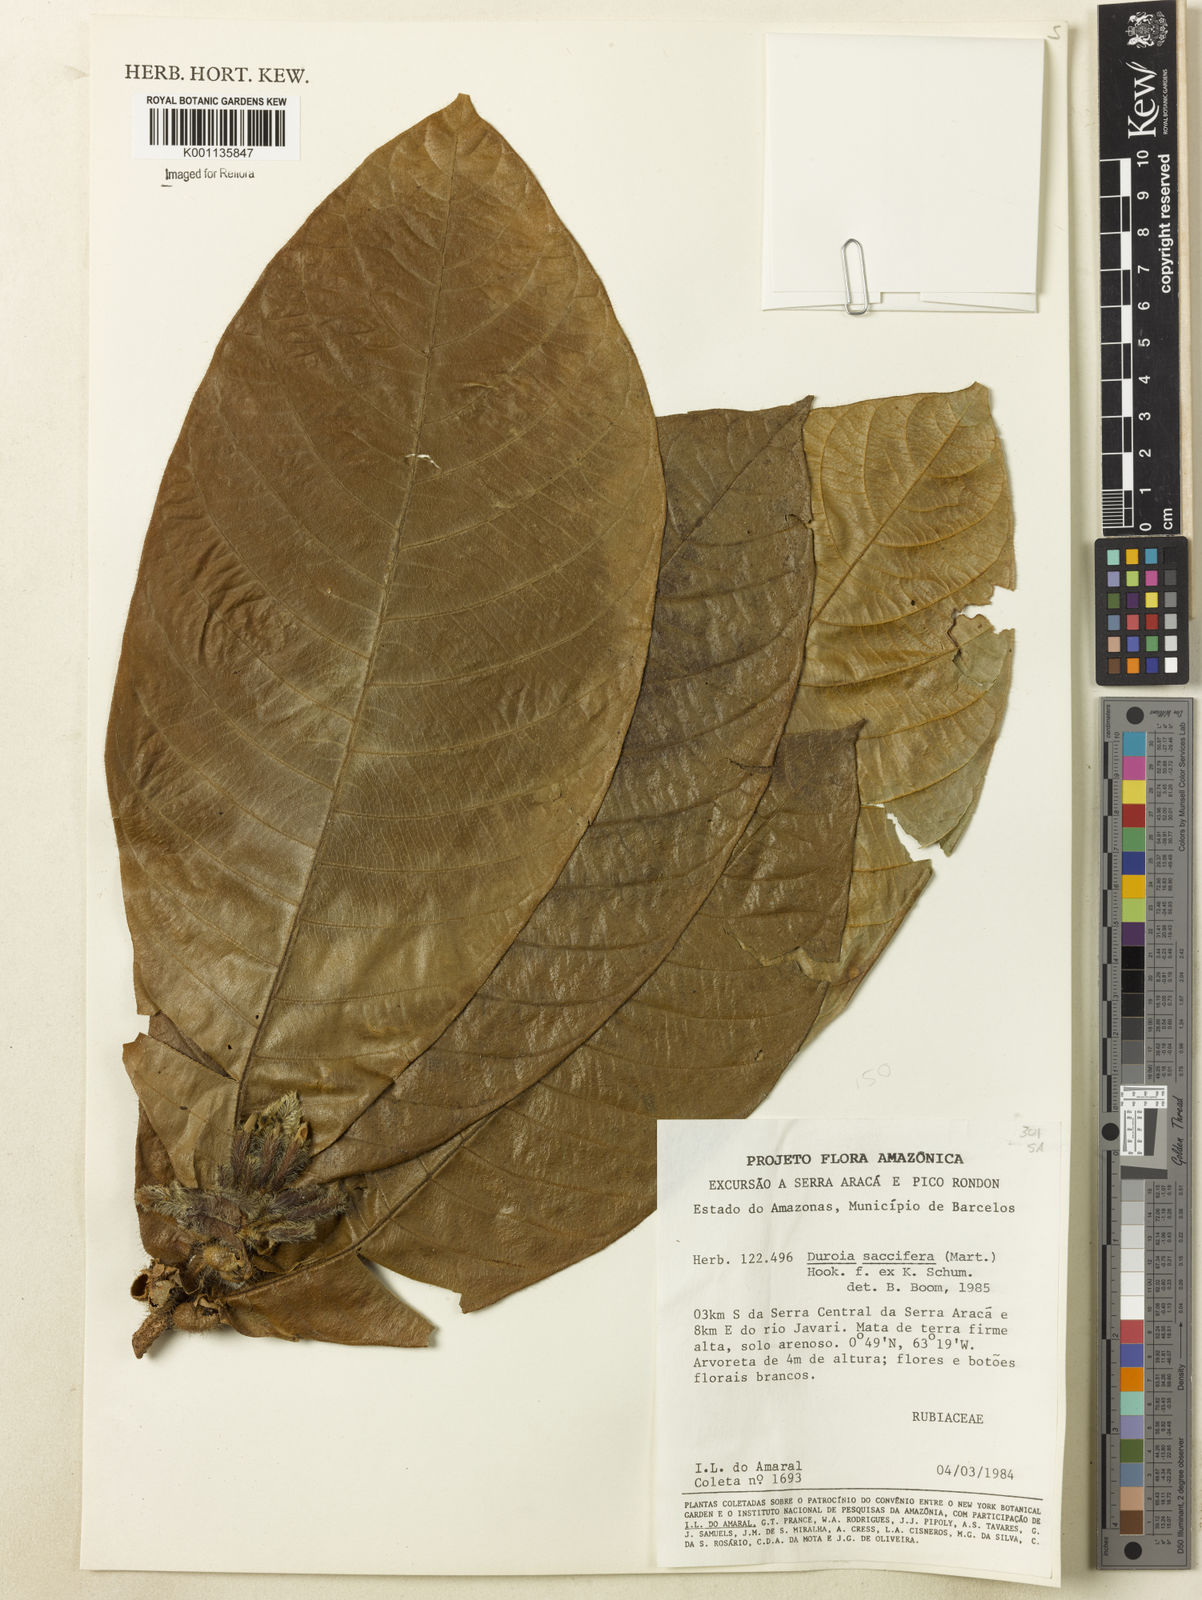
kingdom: Plantae
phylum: Tracheophyta
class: Magnoliopsida
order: Gentianales
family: Rubiaceae
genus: Duroia
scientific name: Duroia saccifera
